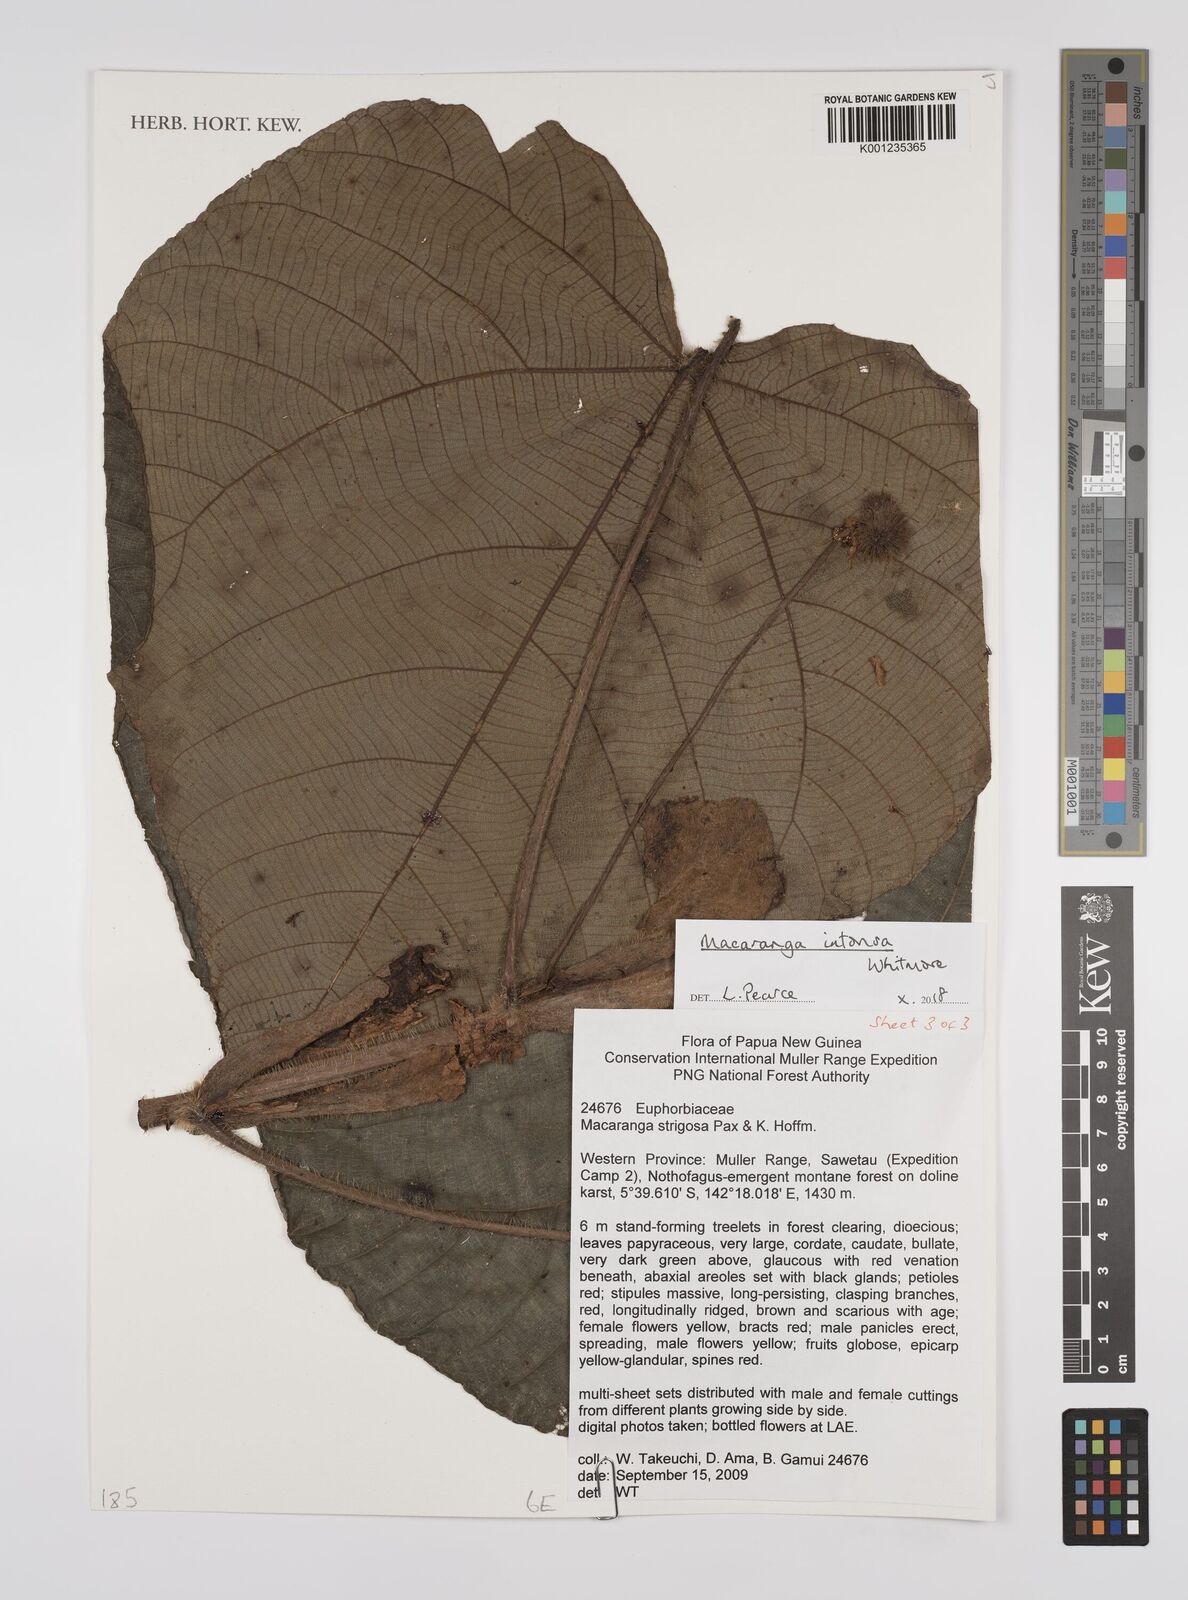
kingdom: Plantae
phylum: Tracheophyta
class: Magnoliopsida
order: Malpighiales
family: Euphorbiaceae
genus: Macaranga
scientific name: Macaranga intonsa
